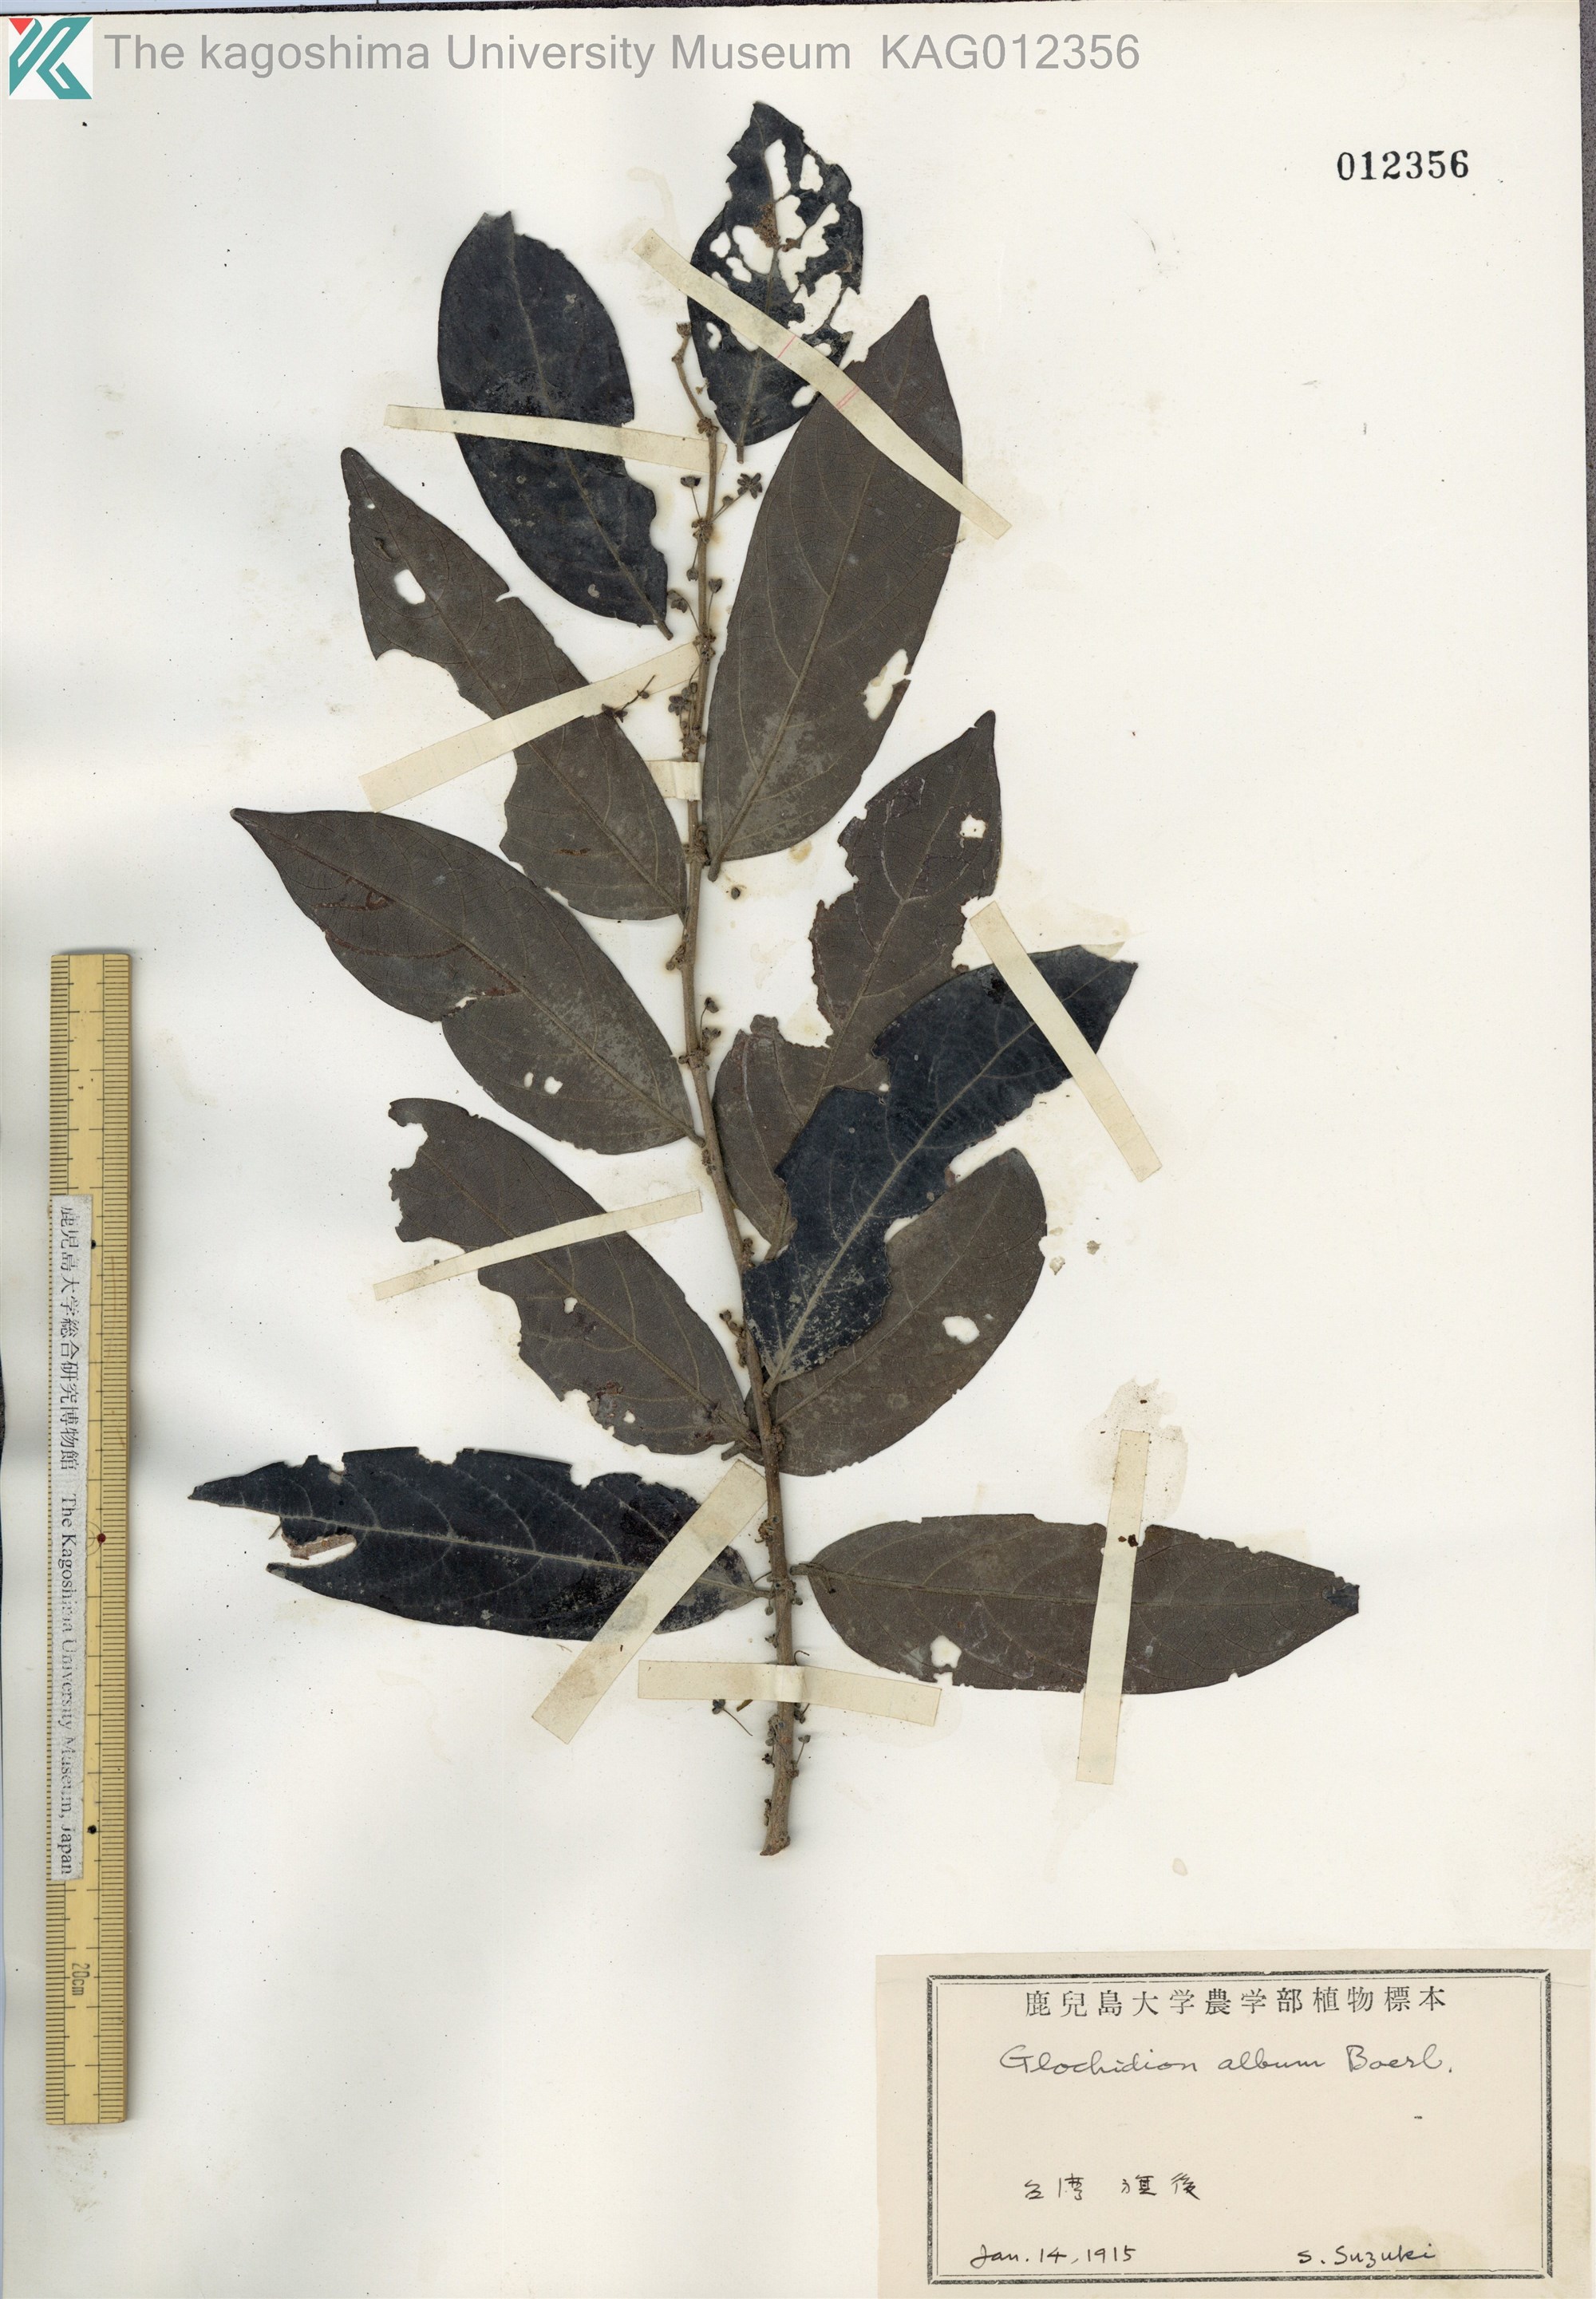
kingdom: Plantae
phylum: Tracheophyta
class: Magnoliopsida
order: Malpighiales
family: Phyllanthaceae
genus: Glochidion
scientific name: Glochidion philippicum
